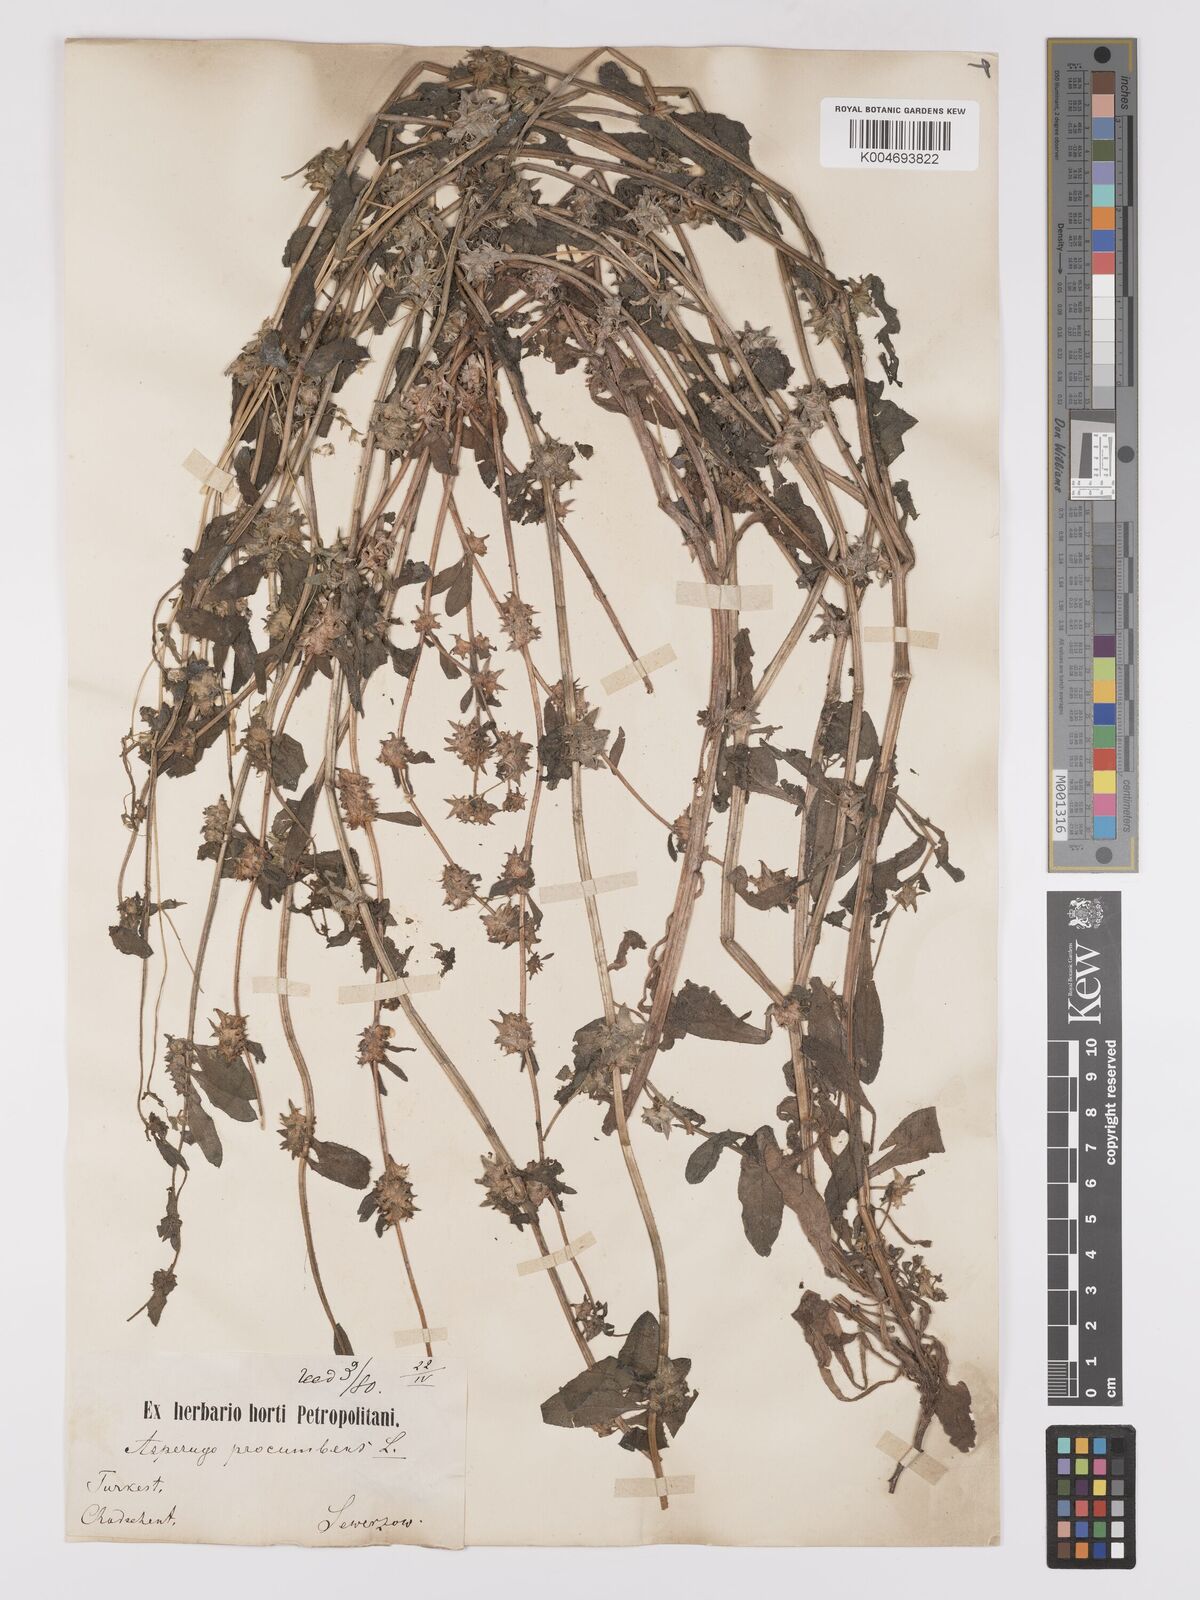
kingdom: Plantae
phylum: Tracheophyta
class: Magnoliopsida
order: Boraginales
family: Boraginaceae
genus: Asperugo
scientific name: Asperugo procumbens
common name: Madwort
